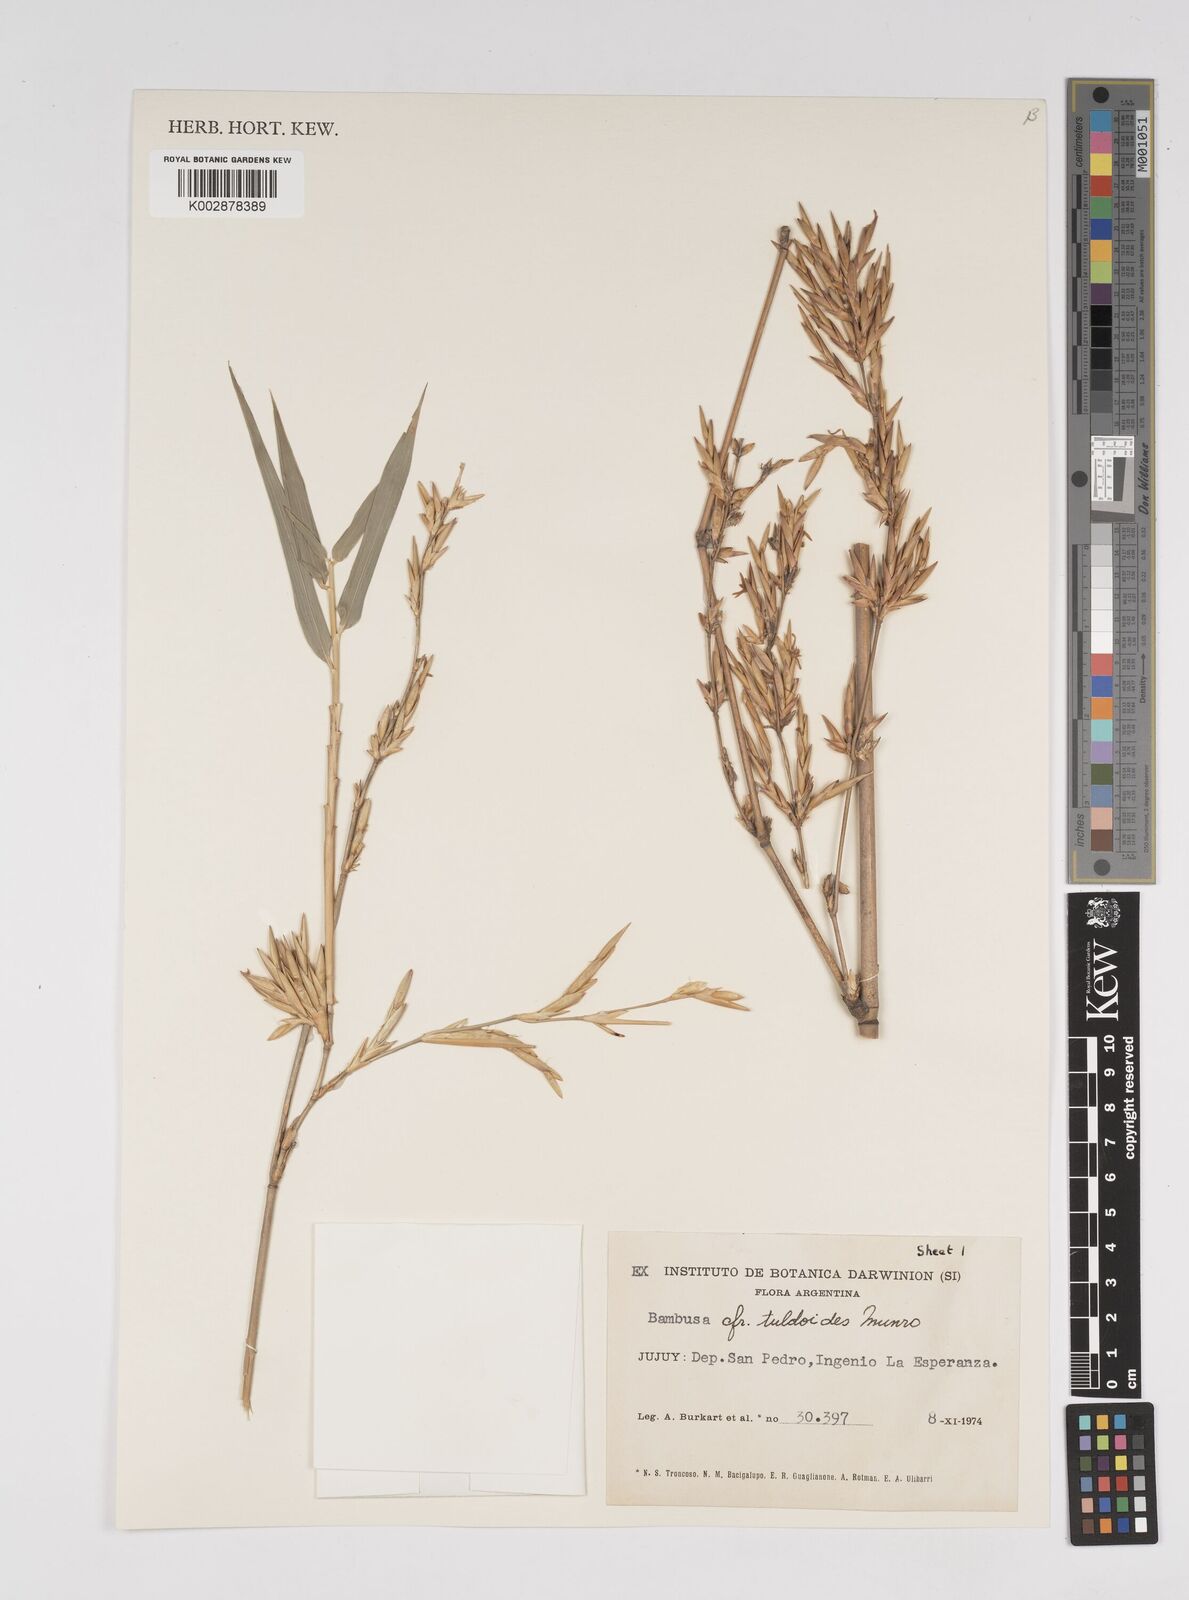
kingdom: Plantae
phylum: Tracheophyta
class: Liliopsida
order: Poales
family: Poaceae
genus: Bambusa
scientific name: Bambusa
